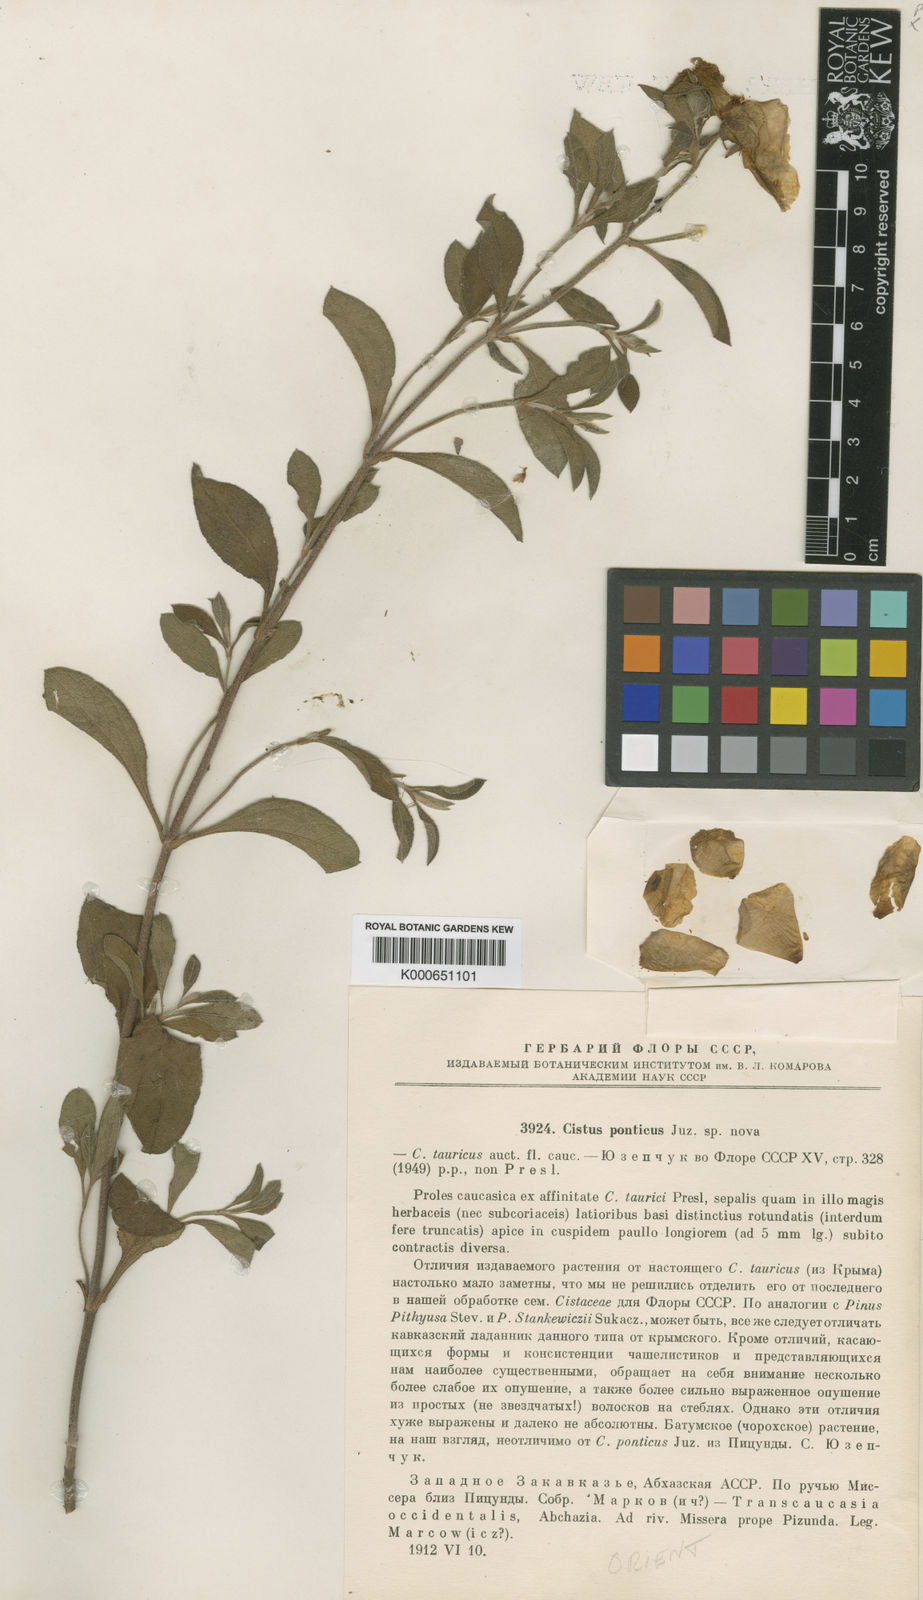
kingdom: Plantae
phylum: Tracheophyta
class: Magnoliopsida
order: Malvales
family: Cistaceae
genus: Cistus
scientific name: Cistus creticus
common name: Cretan rockrose
